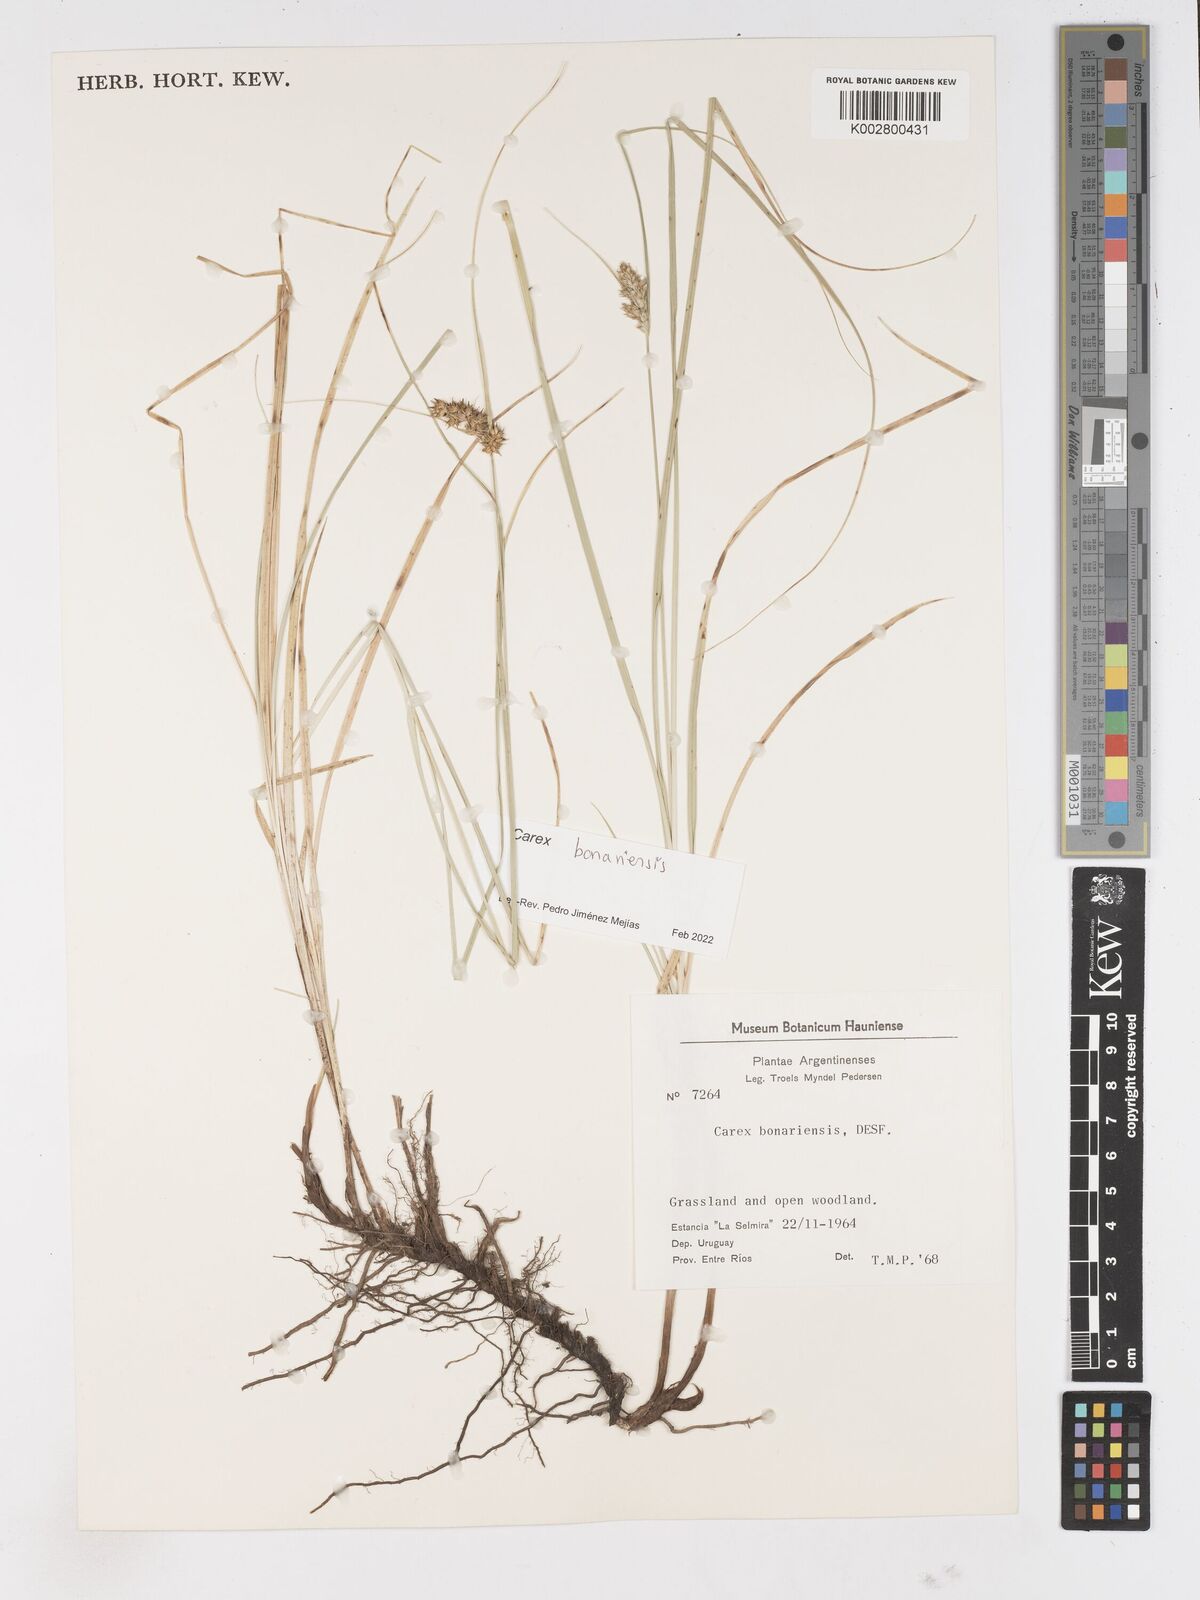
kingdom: Plantae
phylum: Tracheophyta
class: Liliopsida
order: Poales
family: Cyperaceae
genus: Carex
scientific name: Carex bonariensis
